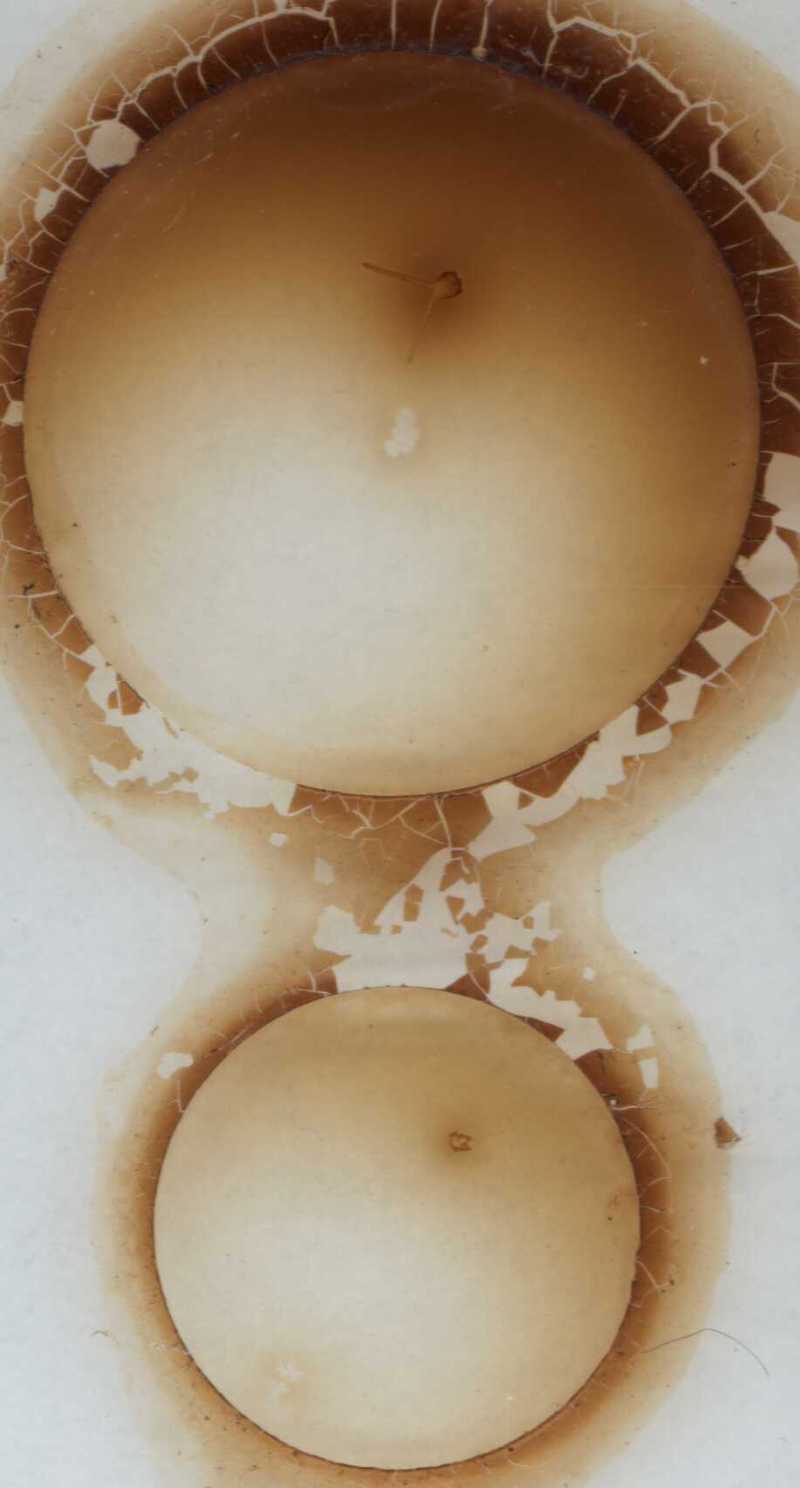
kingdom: Animalia
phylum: Arthropoda
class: Chilopoda
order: Geophilomorpha
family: Aphilodontidae
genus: Aphilodon
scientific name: Aphilodon porosus
